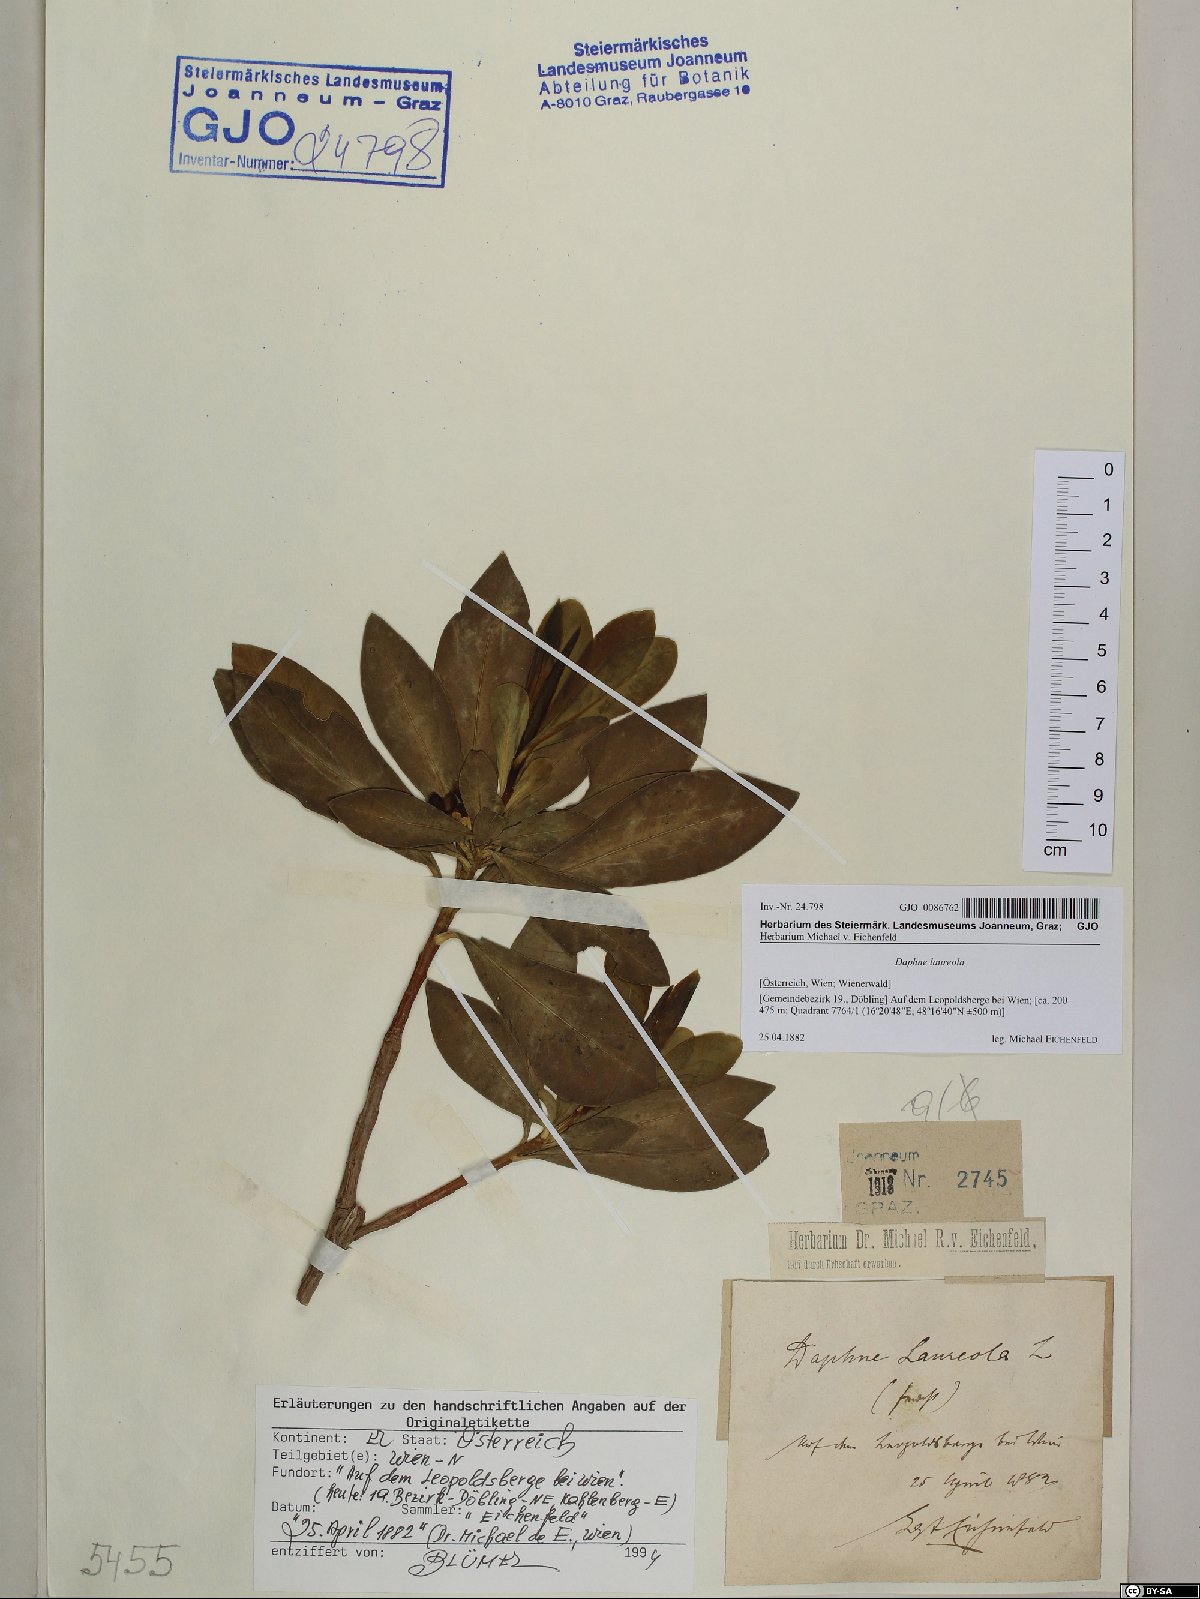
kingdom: Plantae
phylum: Tracheophyta
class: Magnoliopsida
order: Malvales
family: Thymelaeaceae
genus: Daphne
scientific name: Daphne laureola
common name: Spurge-laurel
